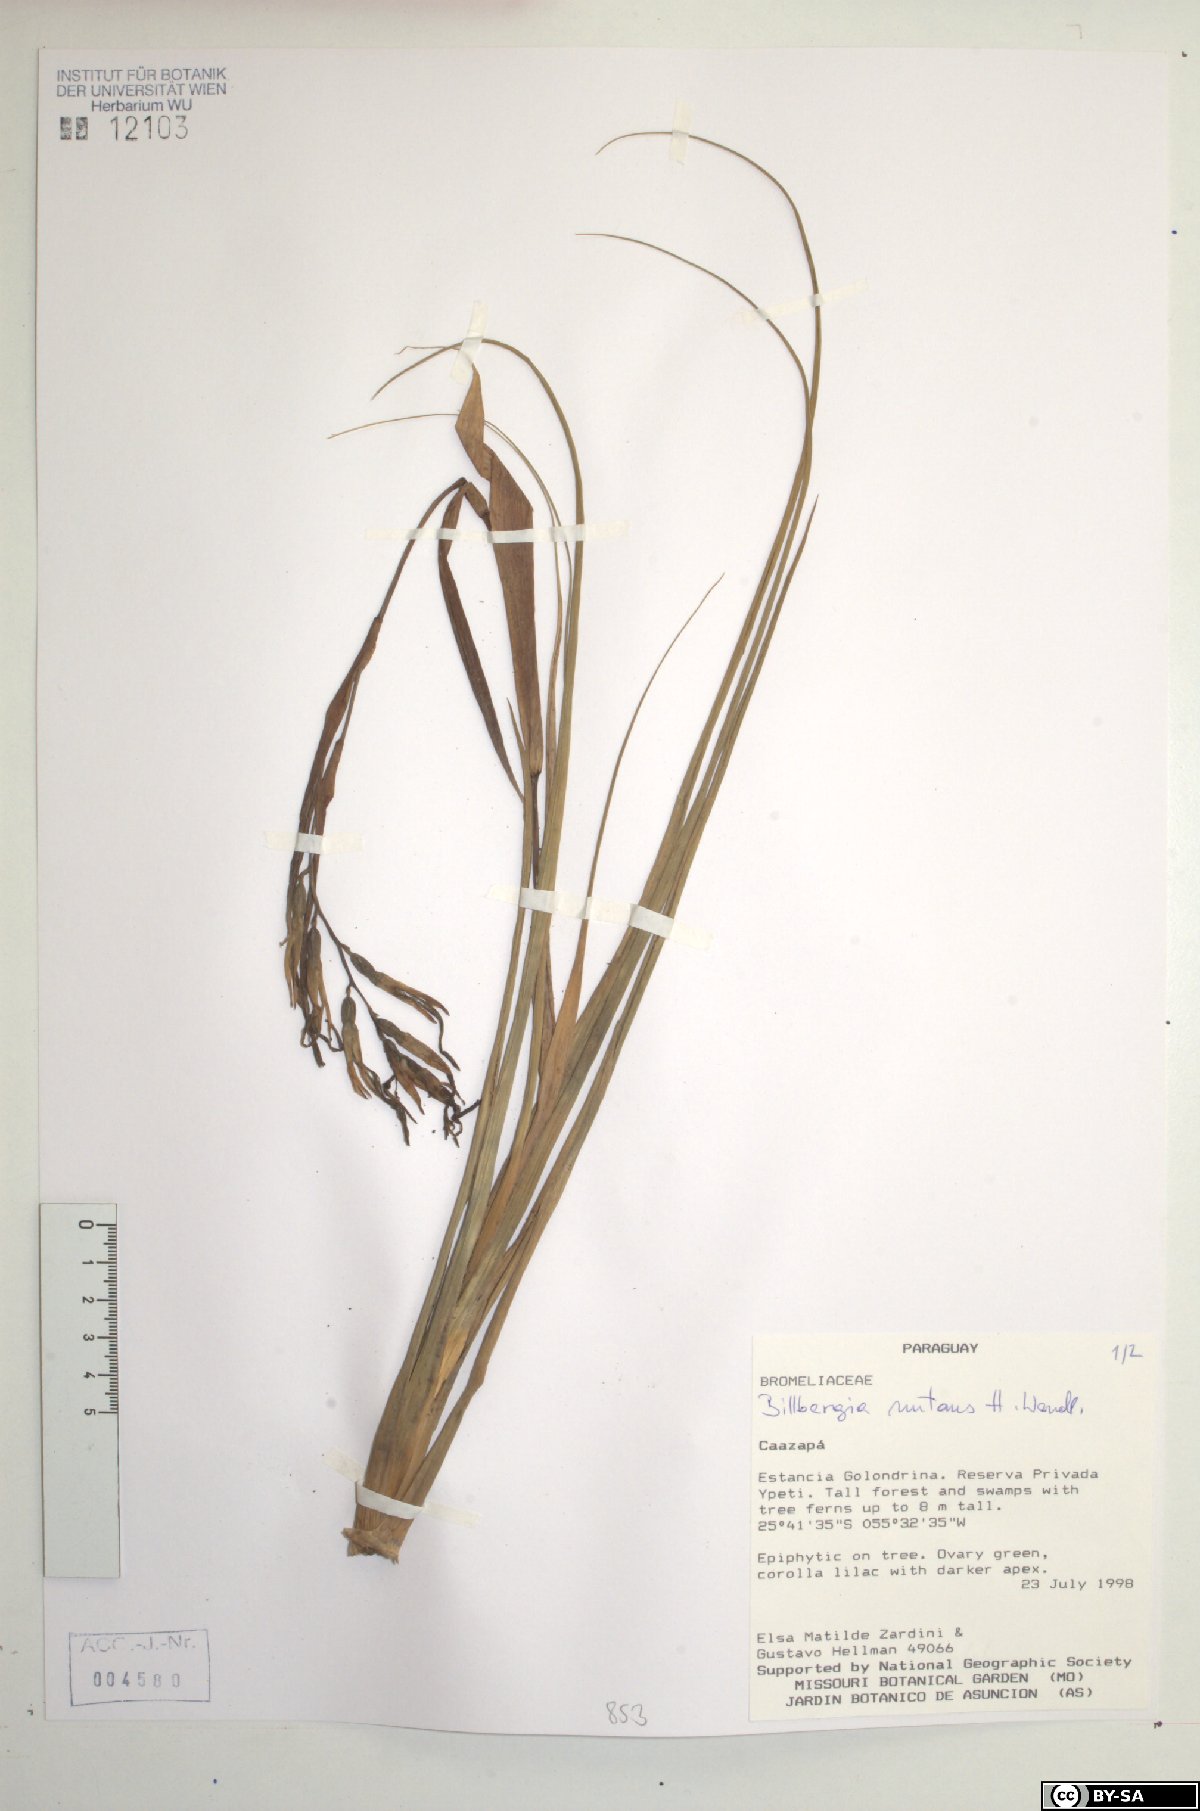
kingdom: Plantae
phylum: Tracheophyta
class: Liliopsida
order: Poales
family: Bromeliaceae
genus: Billbergia
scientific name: Billbergia nutans
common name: Friendship-plant
